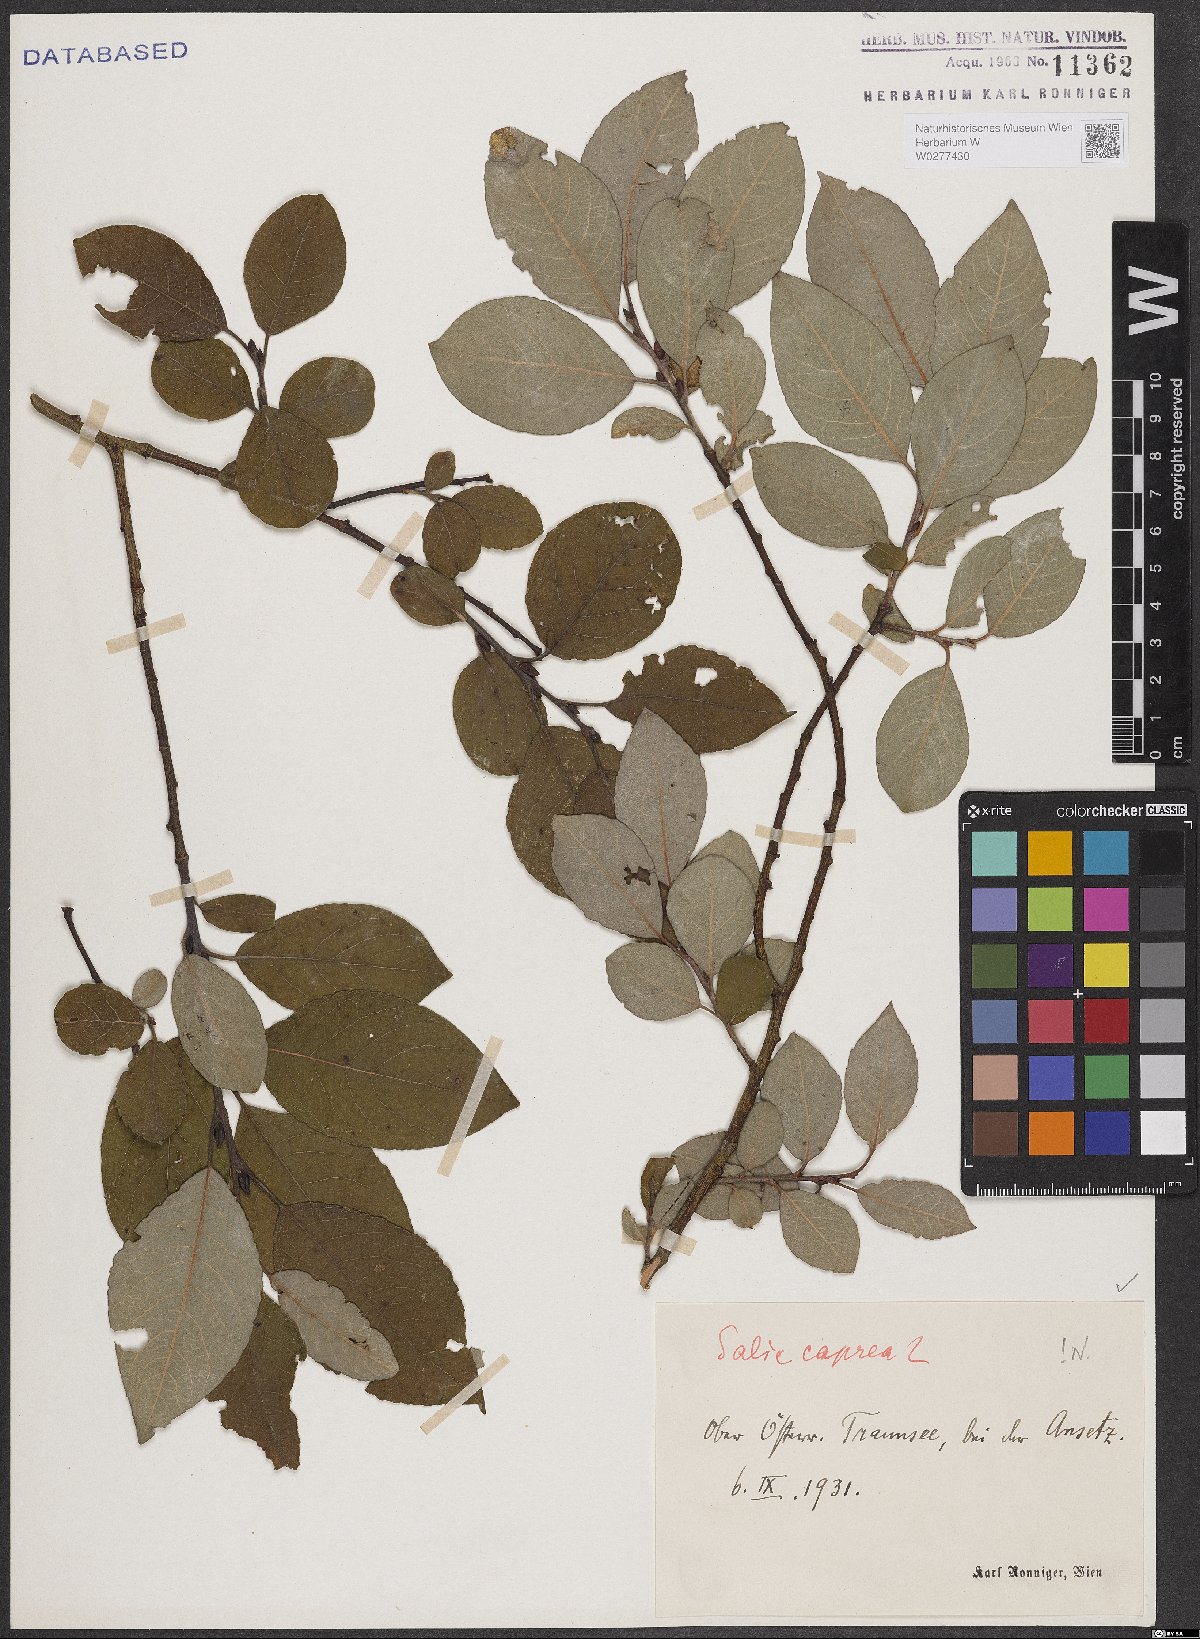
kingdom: Plantae
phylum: Tracheophyta
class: Magnoliopsida
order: Malpighiales
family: Salicaceae
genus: Salix
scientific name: Salix caprea
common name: Goat willow
